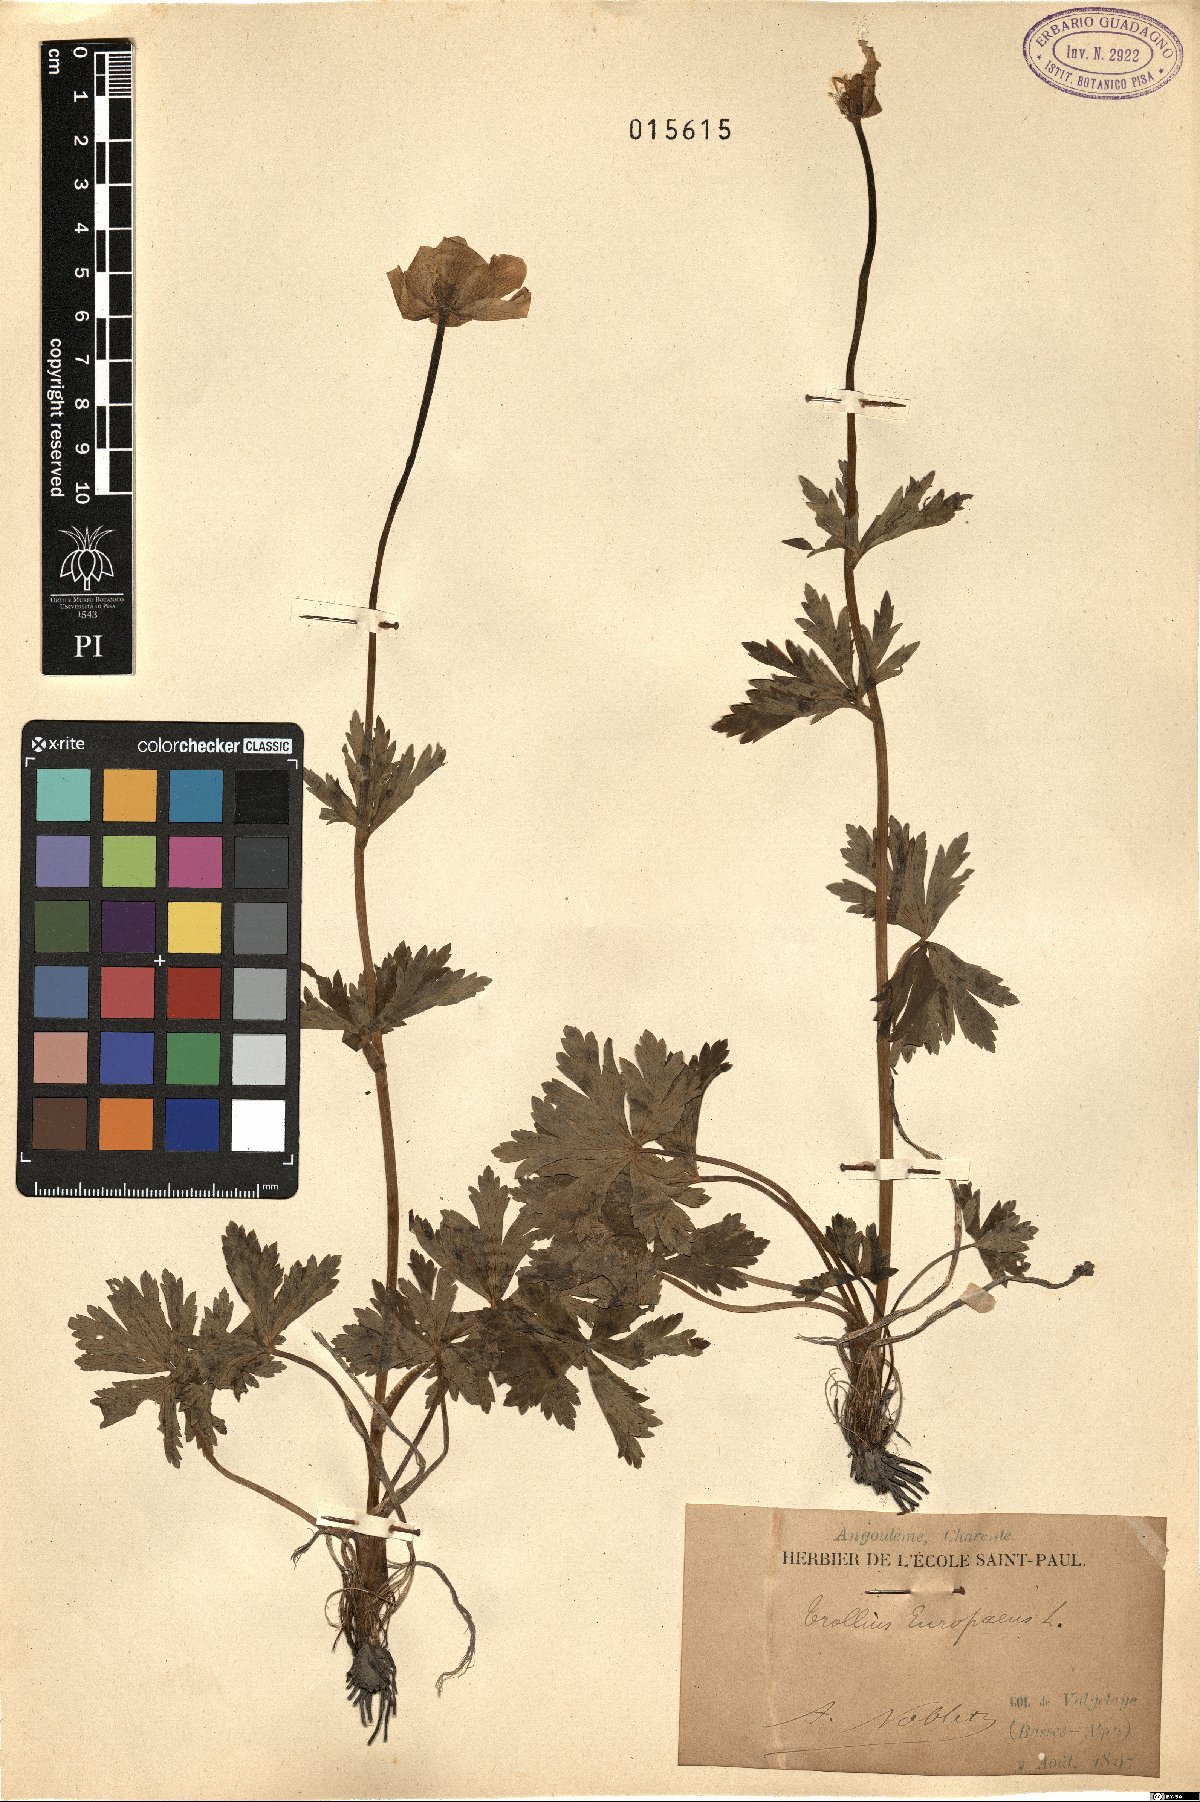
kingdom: Plantae
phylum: Tracheophyta
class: Magnoliopsida
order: Ranunculales
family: Ranunculaceae
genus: Trollius
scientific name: Trollius europaeus
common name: European globeflower
